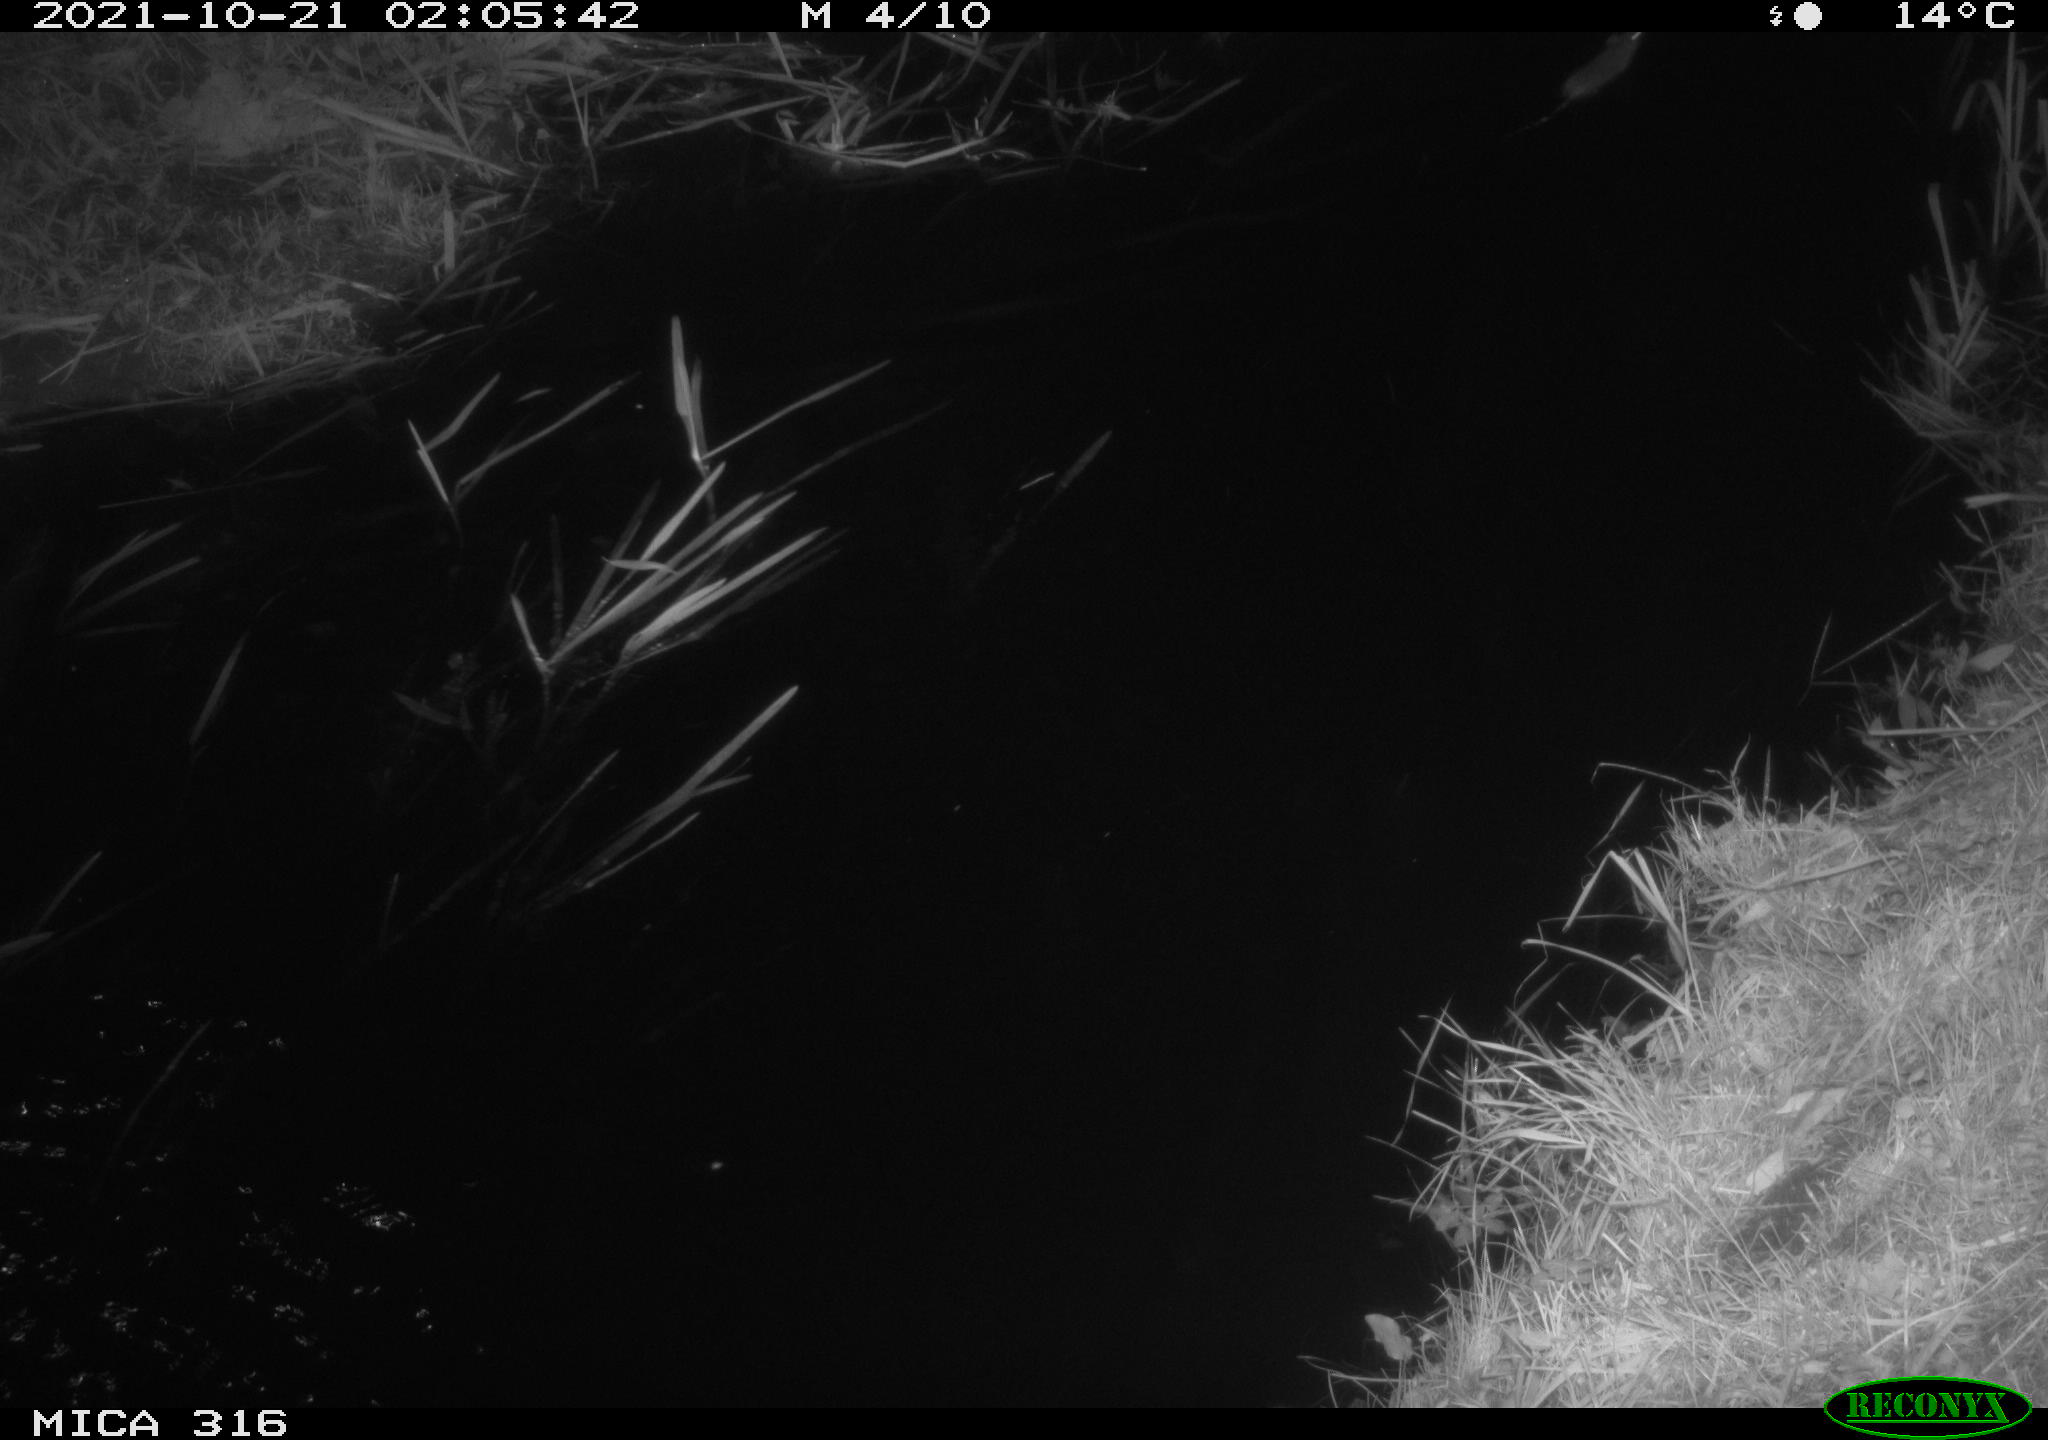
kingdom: Animalia
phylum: Chordata
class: Mammalia
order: Rodentia
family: Muridae
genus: Rattus
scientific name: Rattus norvegicus
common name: Brown rat
